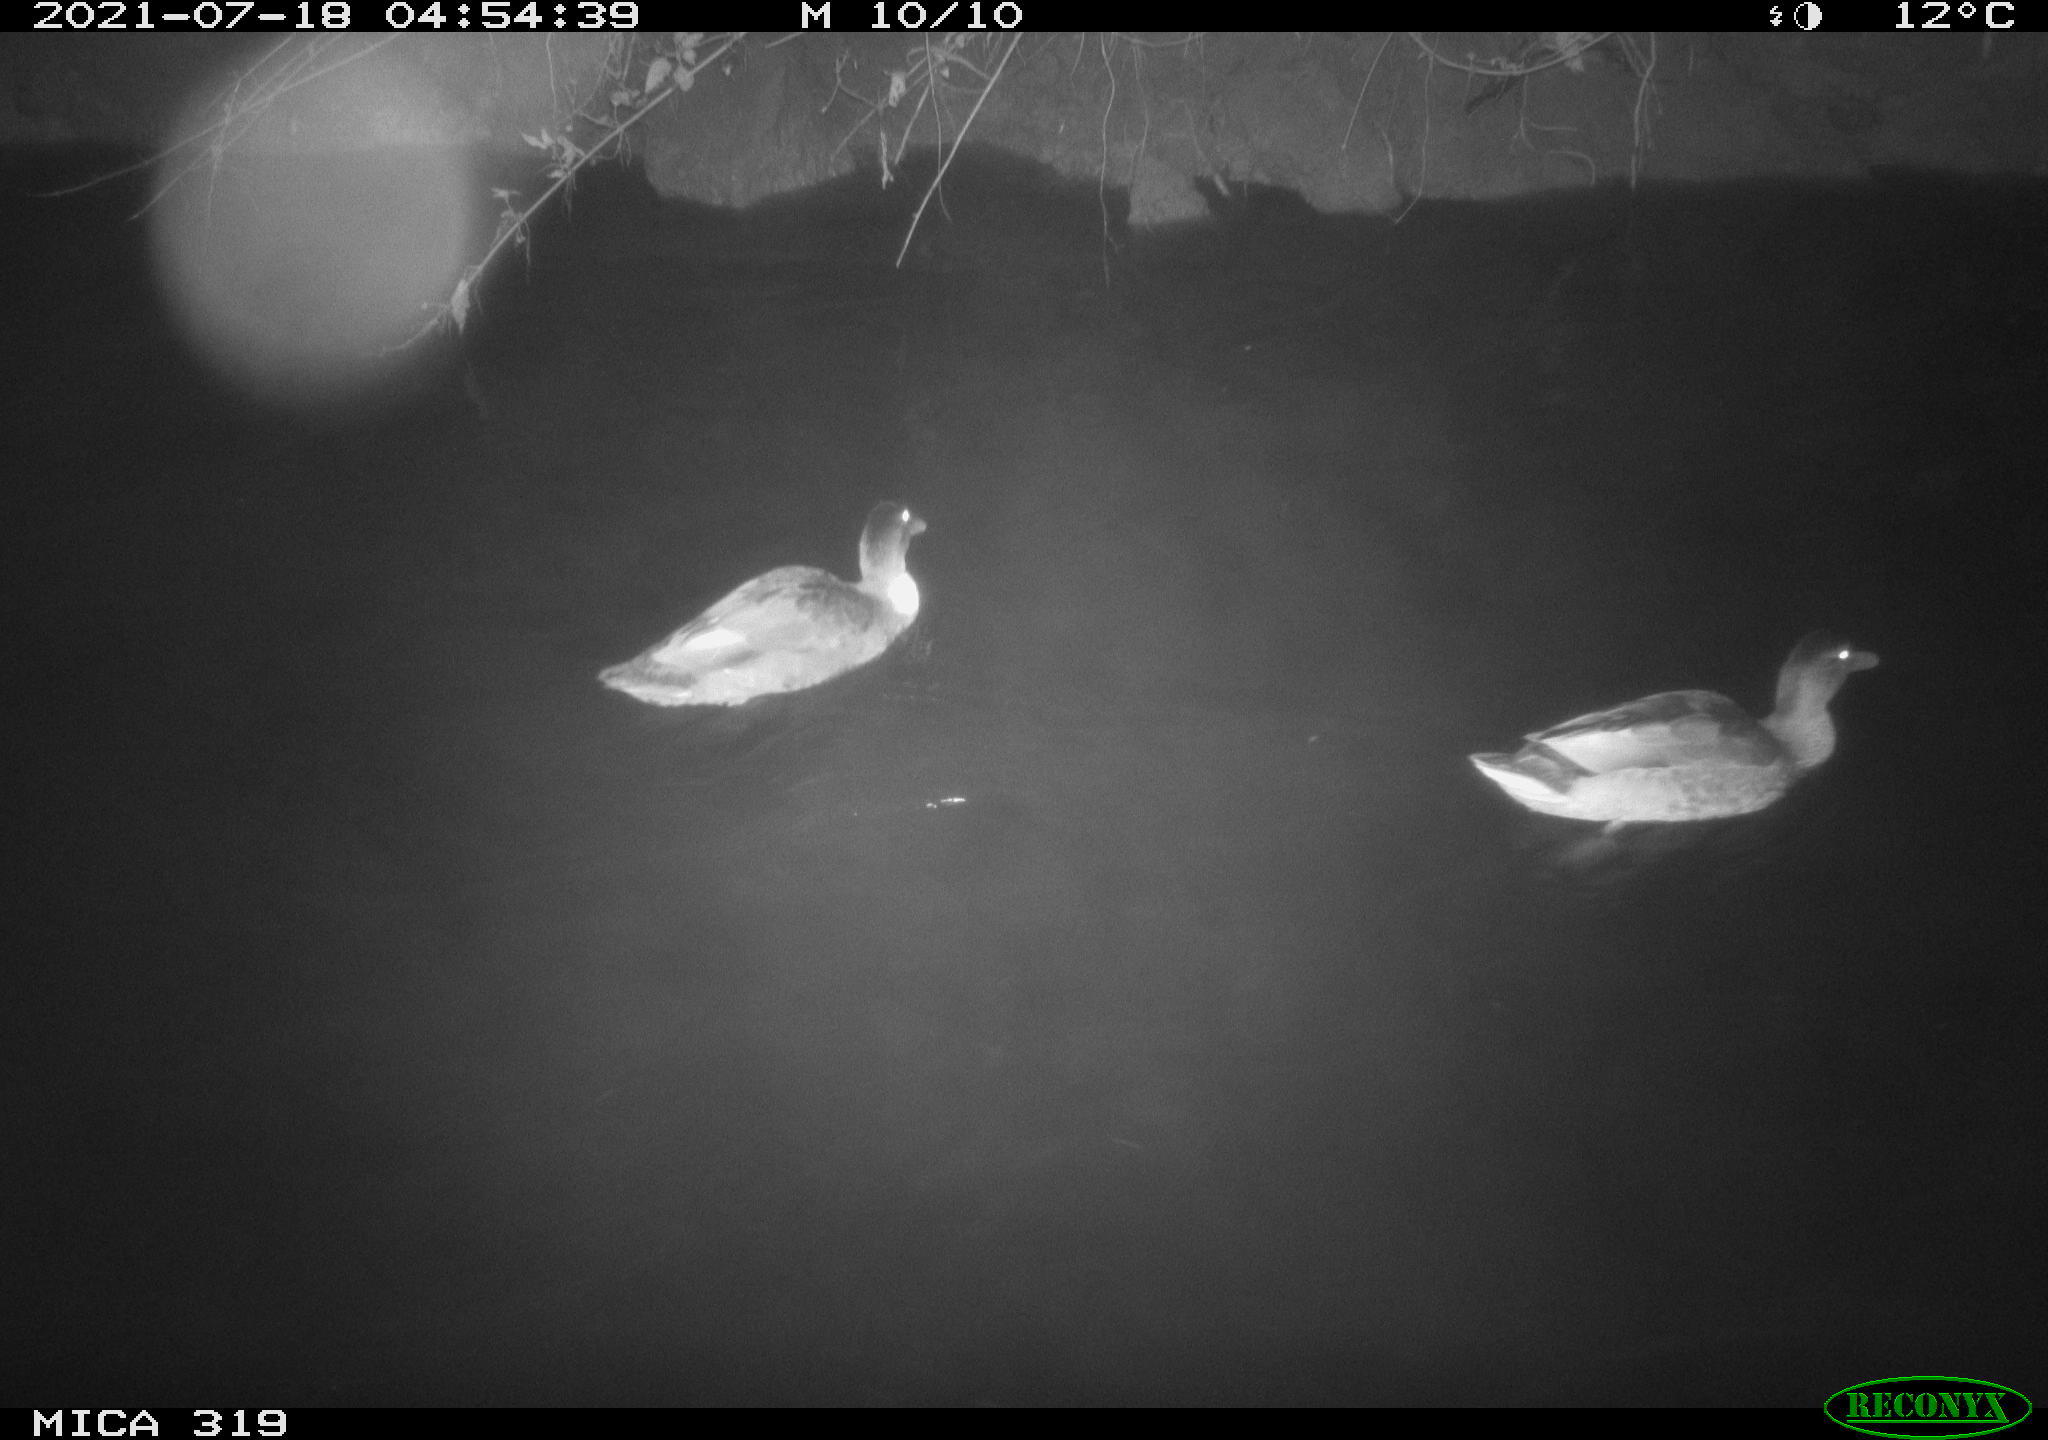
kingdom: Animalia
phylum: Chordata
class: Aves
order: Anseriformes
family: Anatidae
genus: Anas
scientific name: Anas platyrhynchos
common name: Mallard
